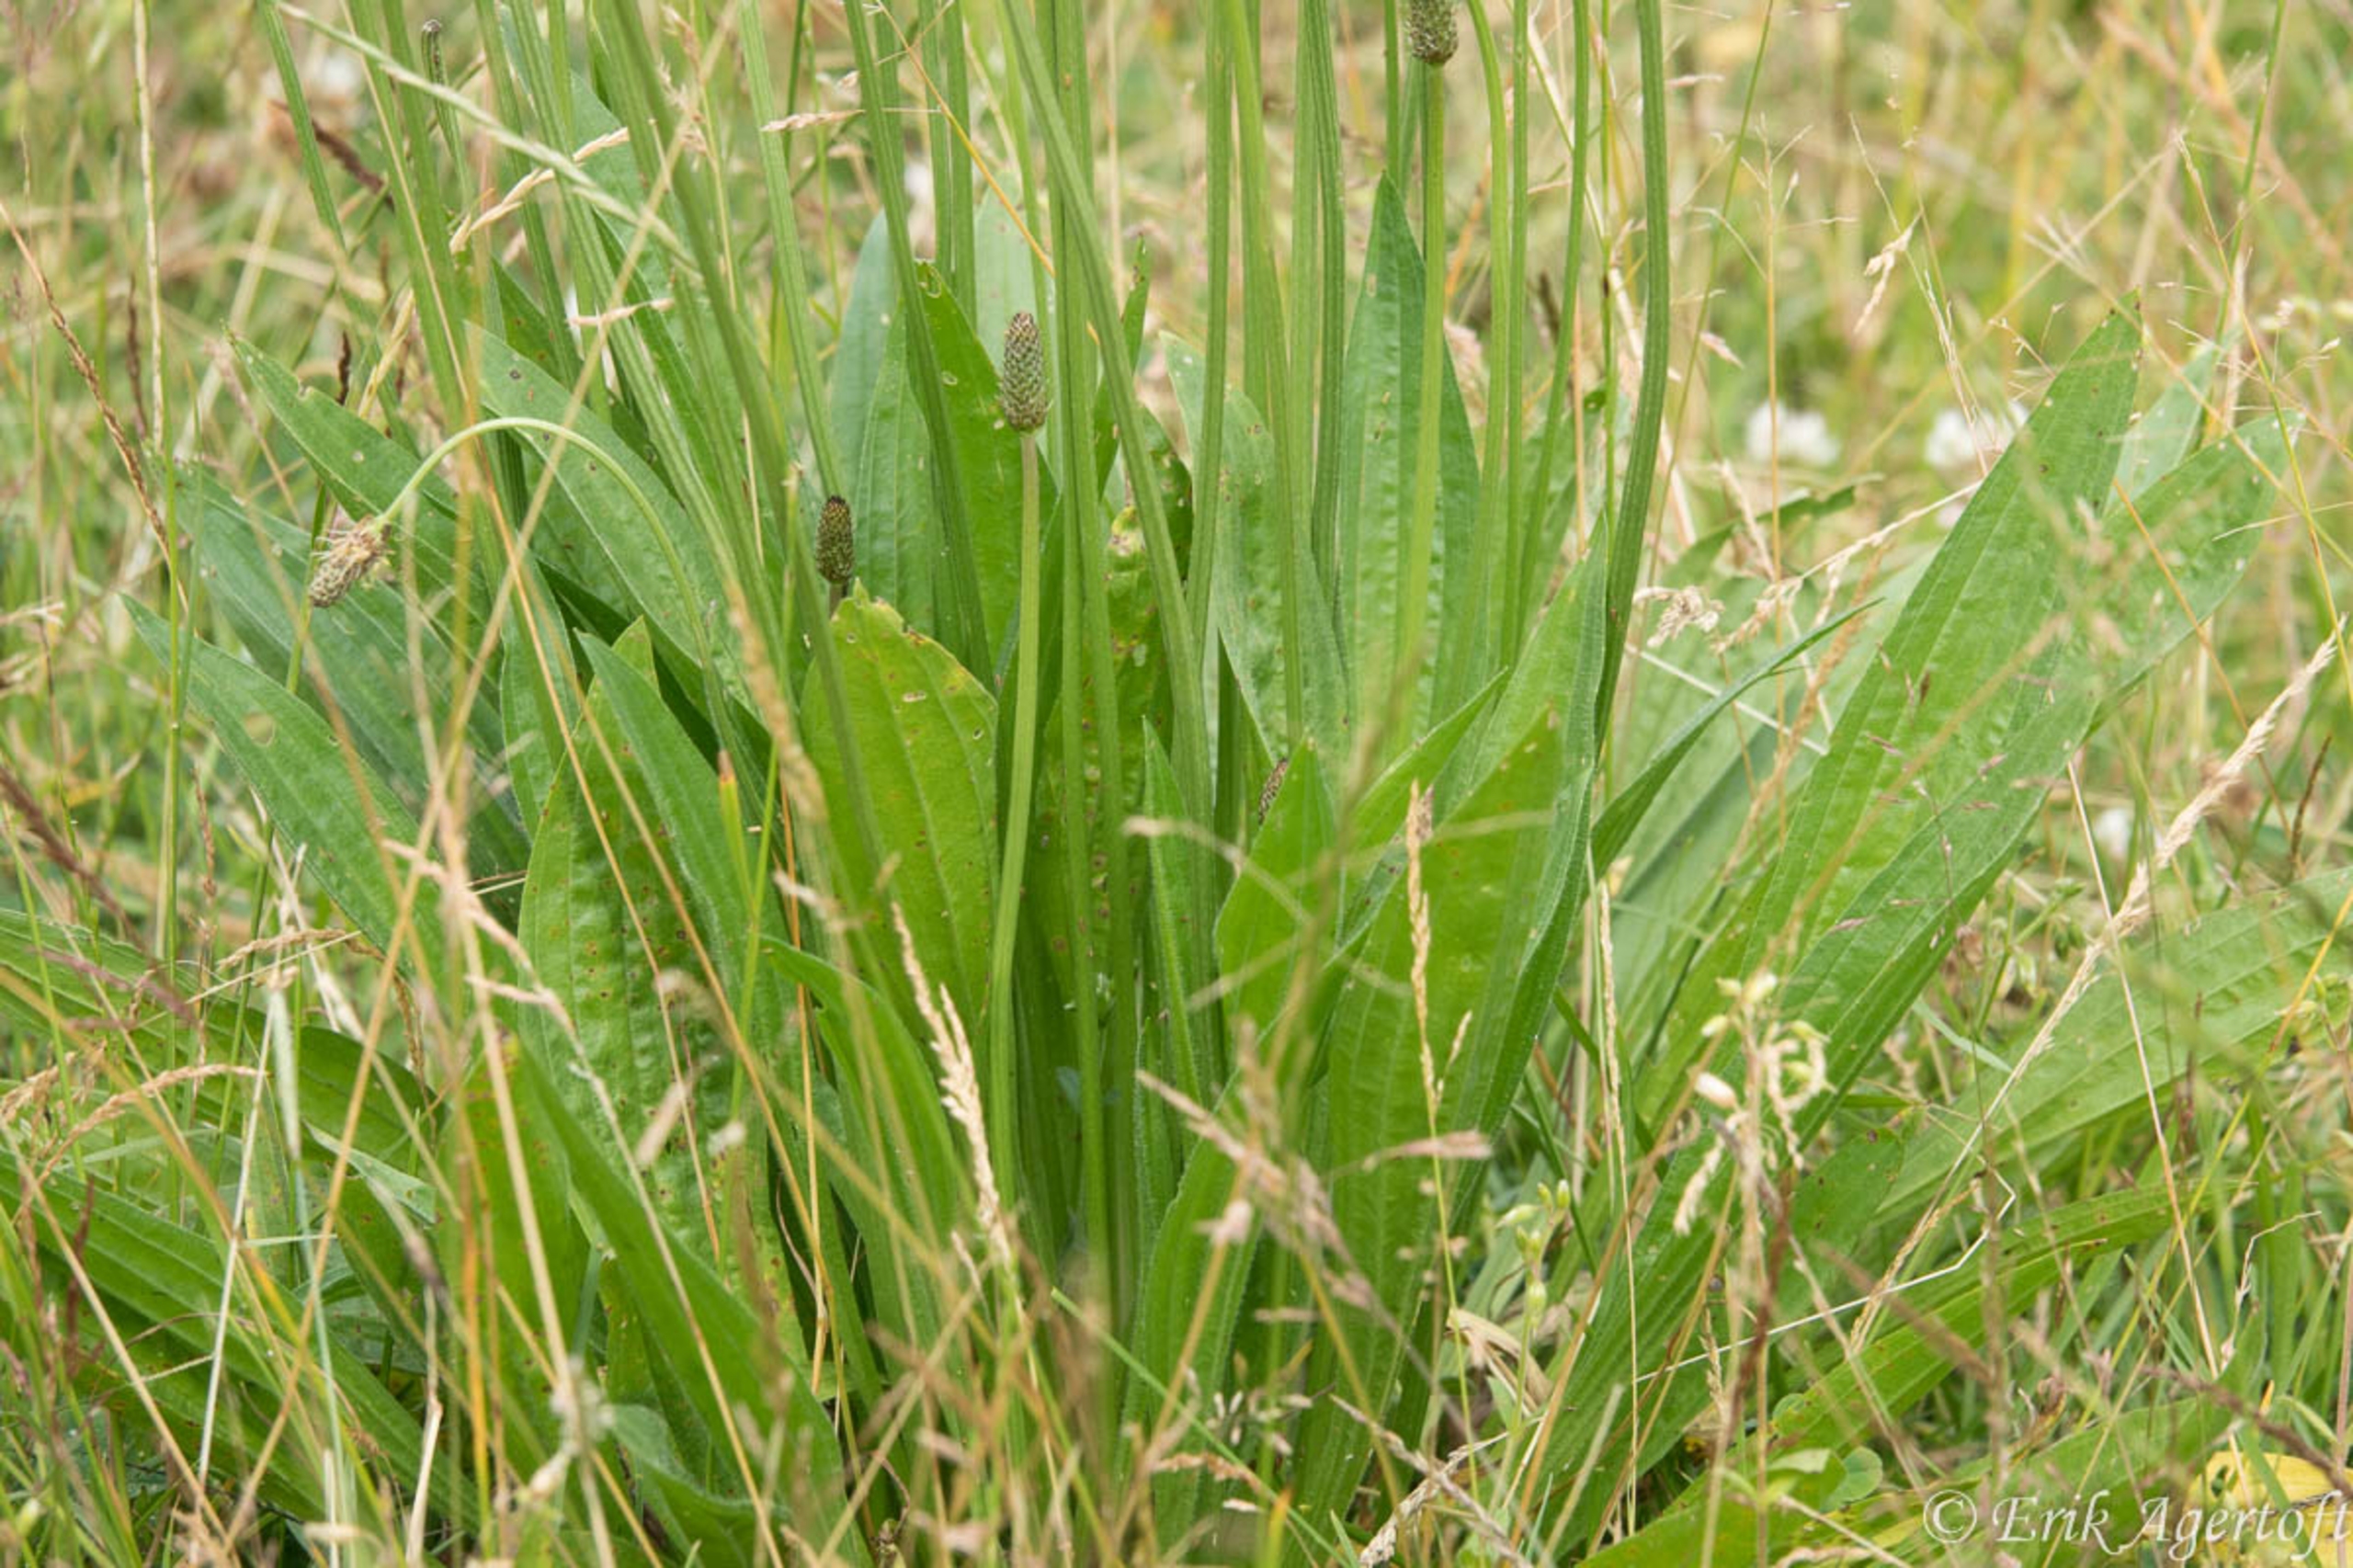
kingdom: Plantae
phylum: Tracheophyta
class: Magnoliopsida
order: Lamiales
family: Plantaginaceae
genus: Plantago
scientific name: Plantago lanceolata
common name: Lancet-vejbred
